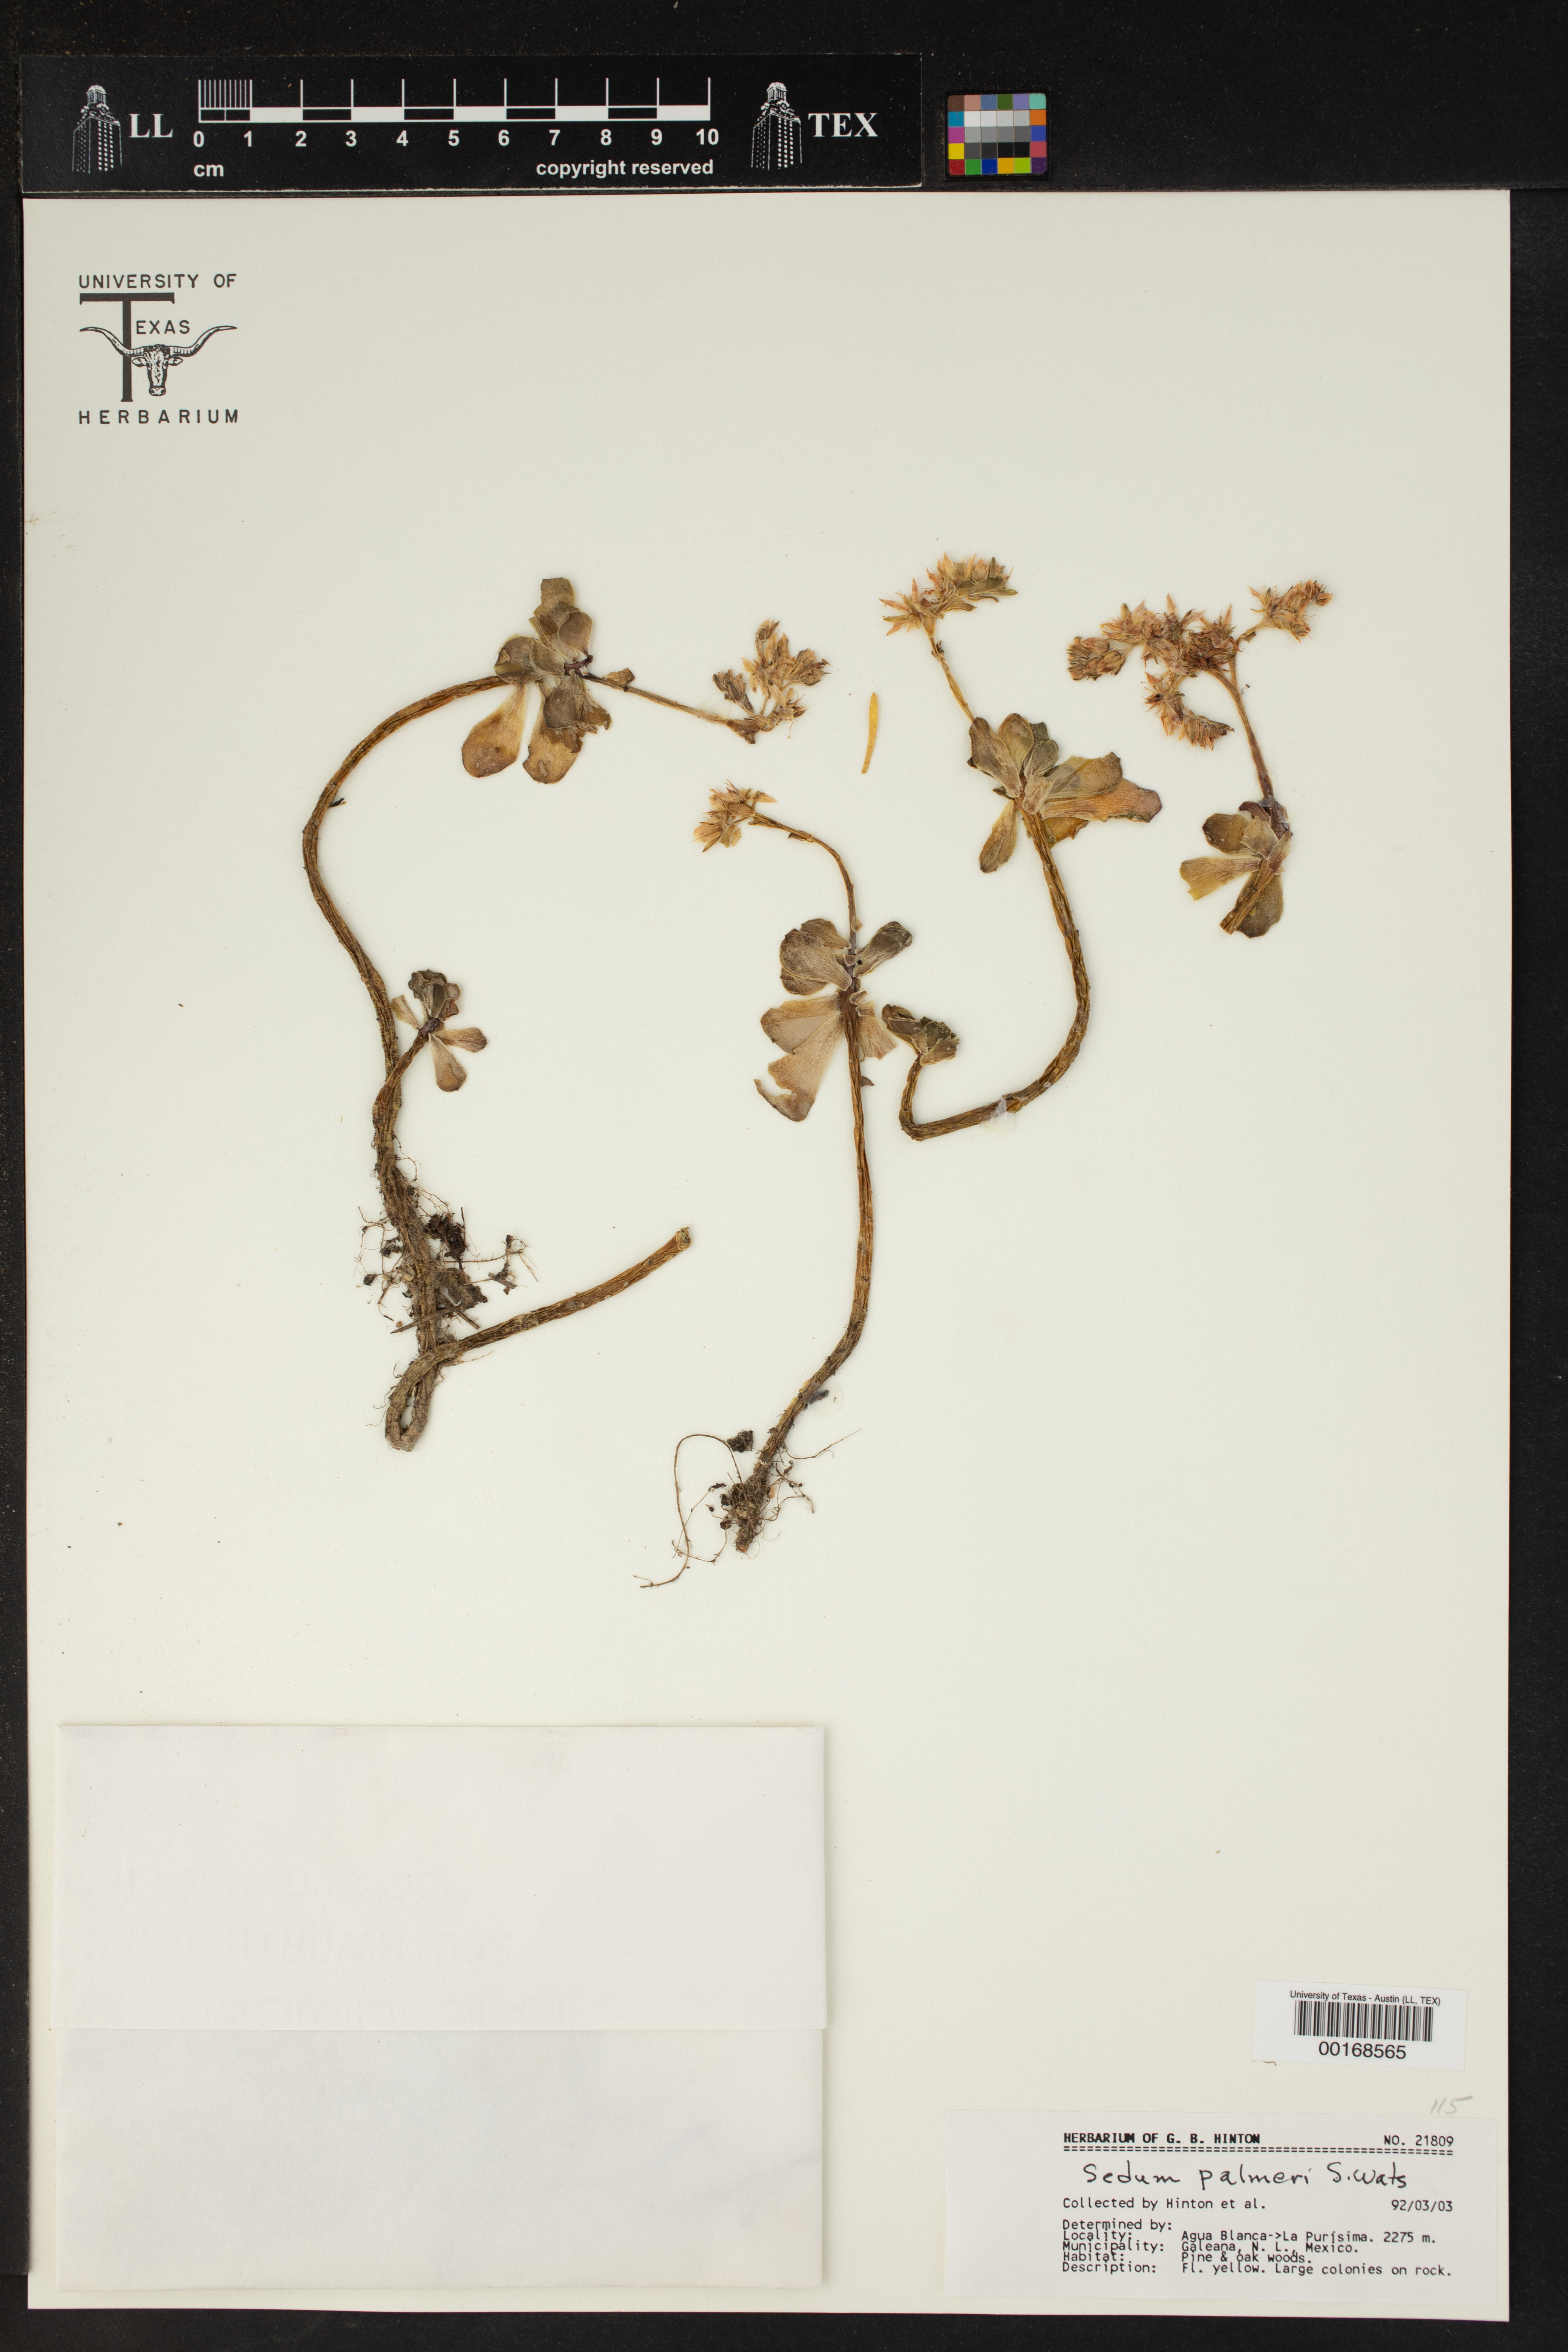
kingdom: Plantae
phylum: Tracheophyta
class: Magnoliopsida
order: Saxifragales
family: Crassulaceae
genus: Sedum
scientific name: Sedum palmeri
